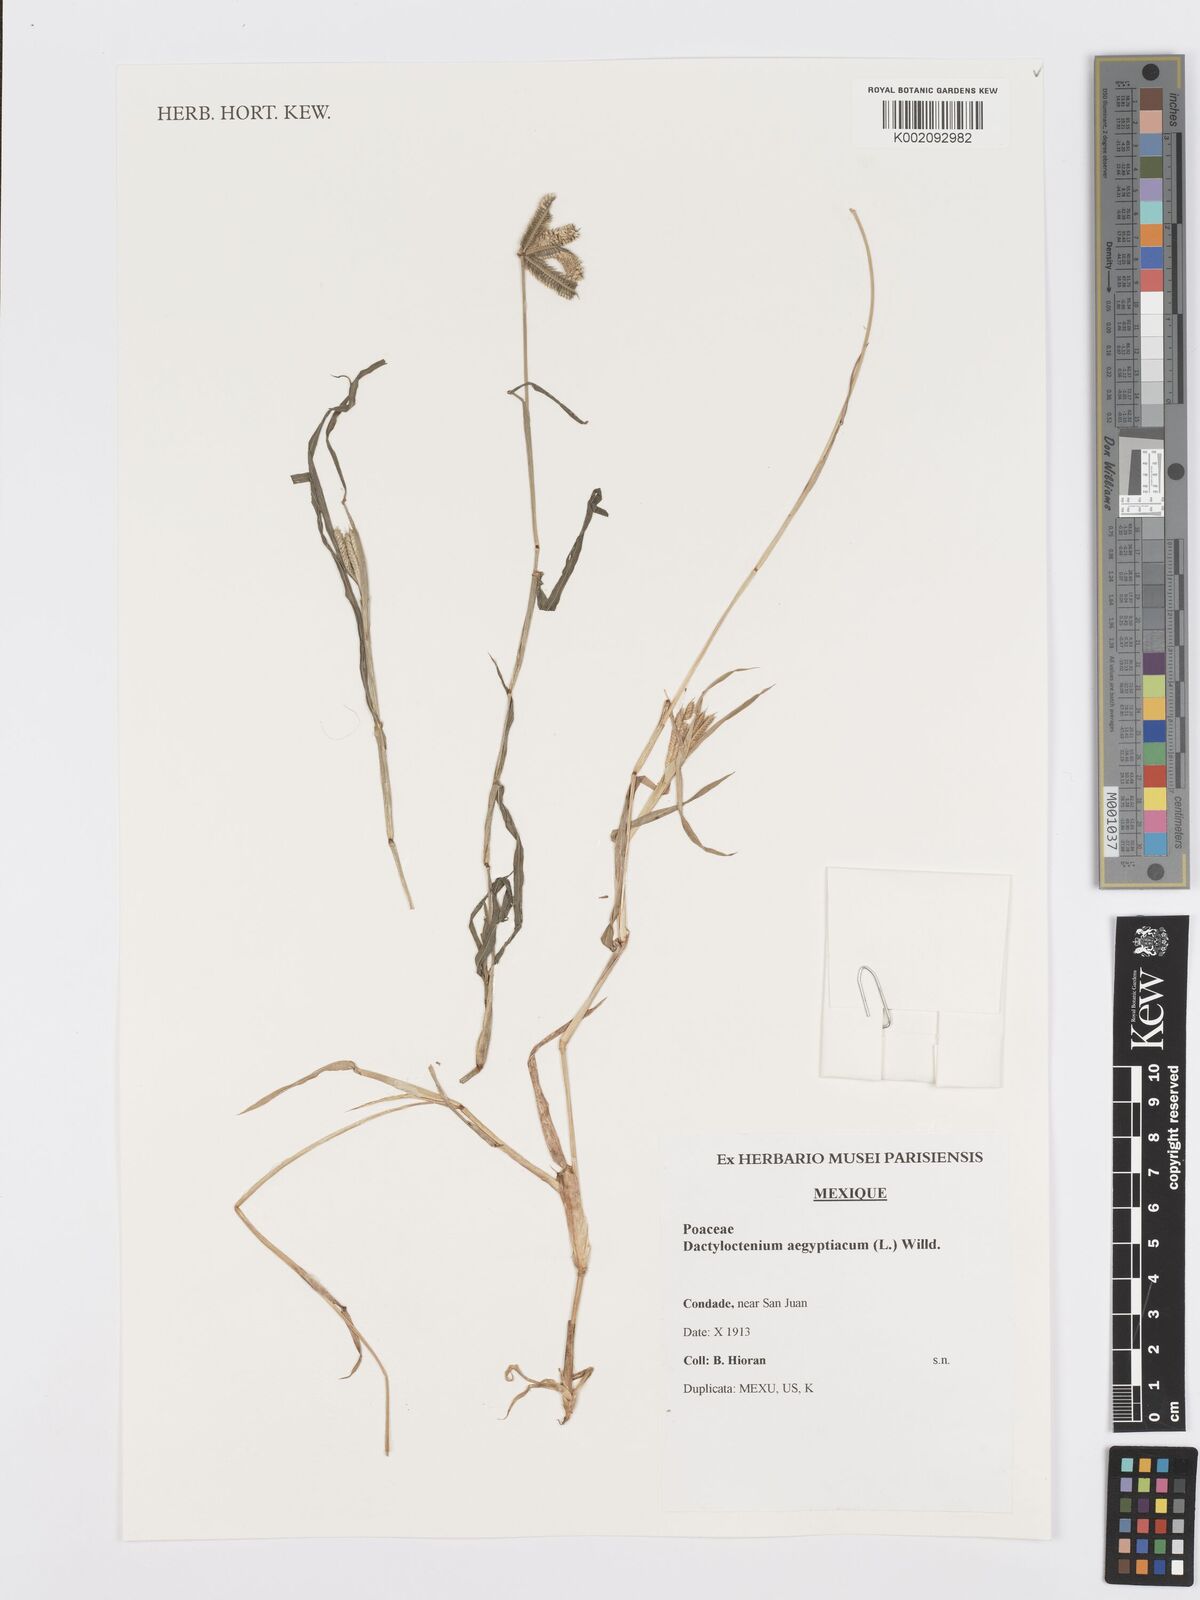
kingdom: Plantae
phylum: Tracheophyta
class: Liliopsida
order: Poales
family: Poaceae
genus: Dactyloctenium
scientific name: Dactyloctenium aegyptium
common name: Egyptian grass
